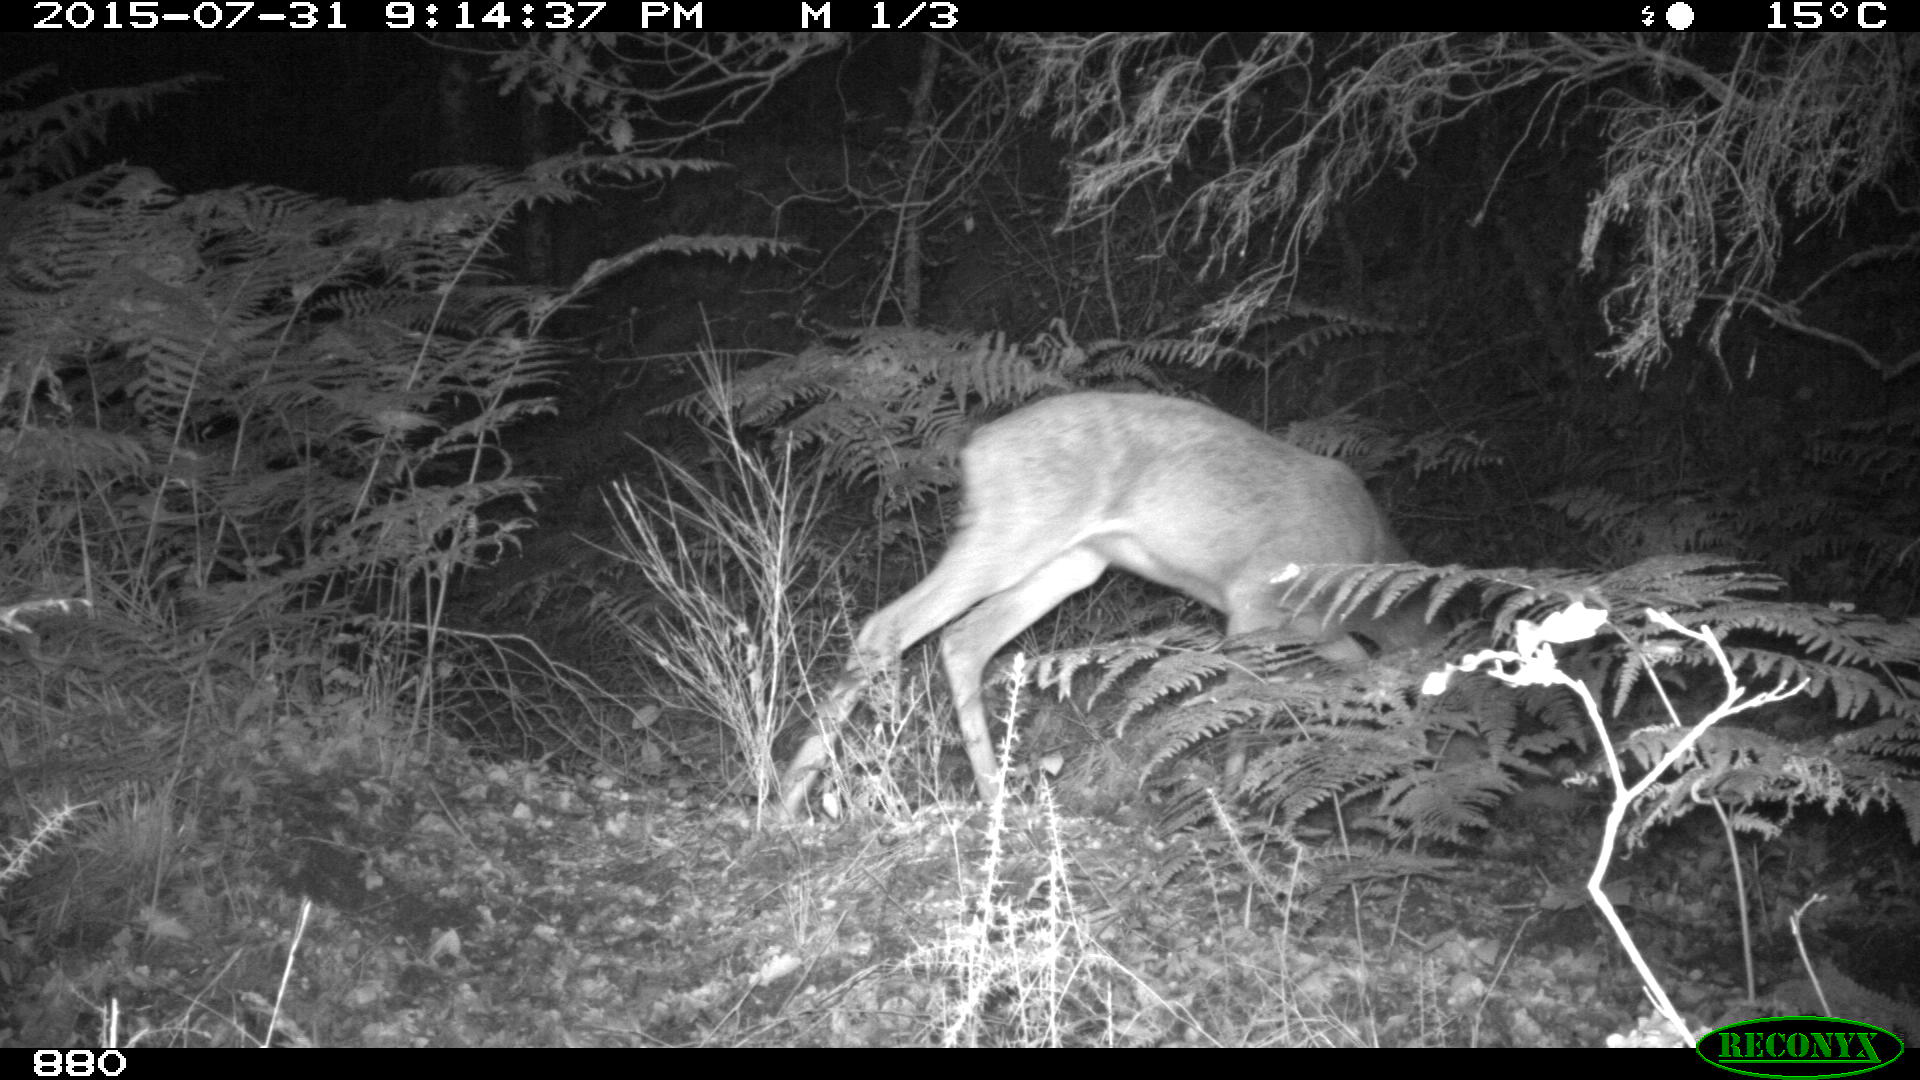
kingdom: Animalia
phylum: Chordata
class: Mammalia
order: Artiodactyla
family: Cervidae
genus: Capreolus
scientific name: Capreolus capreolus
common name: Western roe deer
